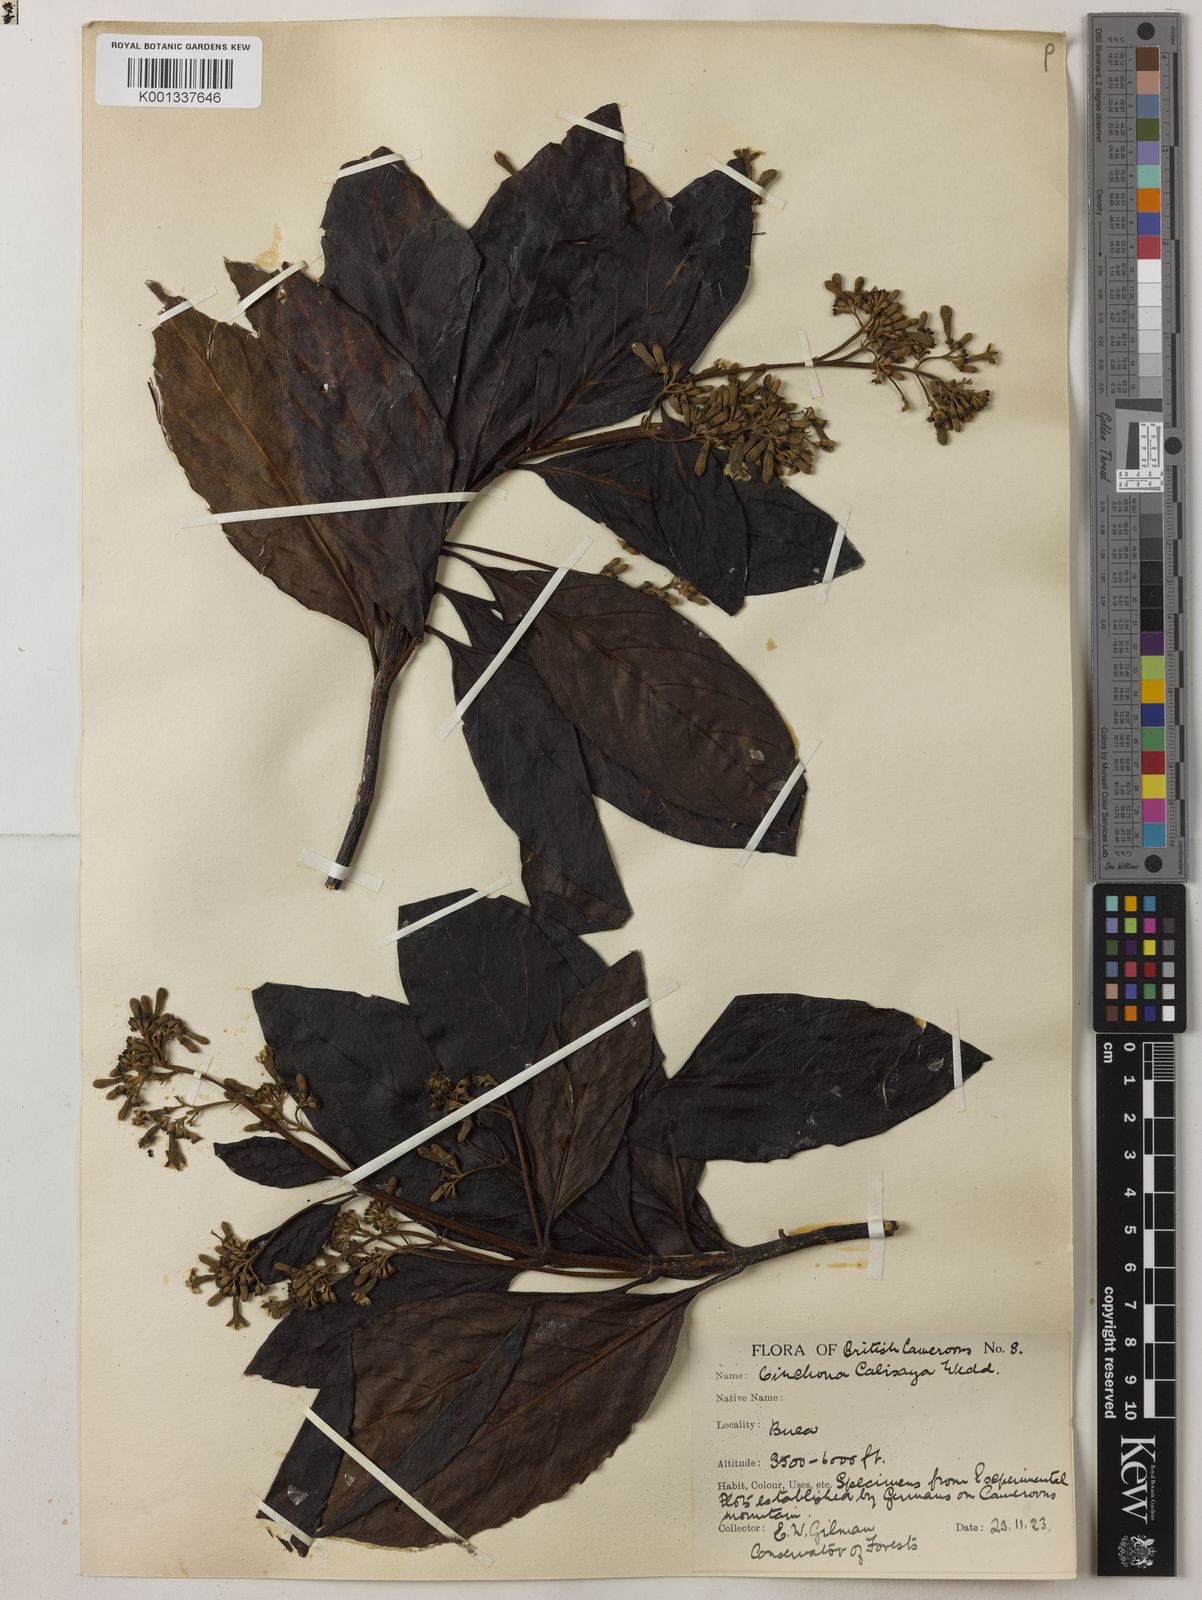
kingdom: Plantae
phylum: Tracheophyta
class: Magnoliopsida
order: Gentianales
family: Rubiaceae
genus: Cinchona
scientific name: Cinchona calisaya
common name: Ledgerbark
